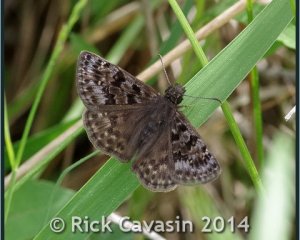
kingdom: Animalia
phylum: Arthropoda
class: Insecta
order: Lepidoptera
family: Hesperiidae
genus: Erynnis
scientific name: Erynnis martialis
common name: Mottled Duskywing
